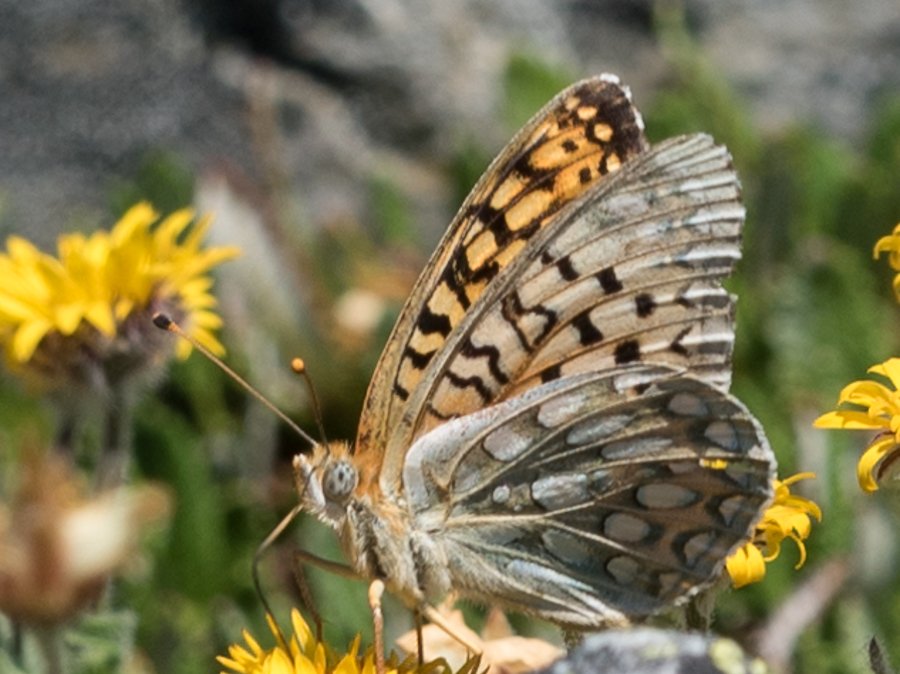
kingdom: Animalia
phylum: Arthropoda
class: Insecta
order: Lepidoptera
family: Nymphalidae
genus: Speyeria
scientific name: Speyeria callippe
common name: Callippe Fritillary
